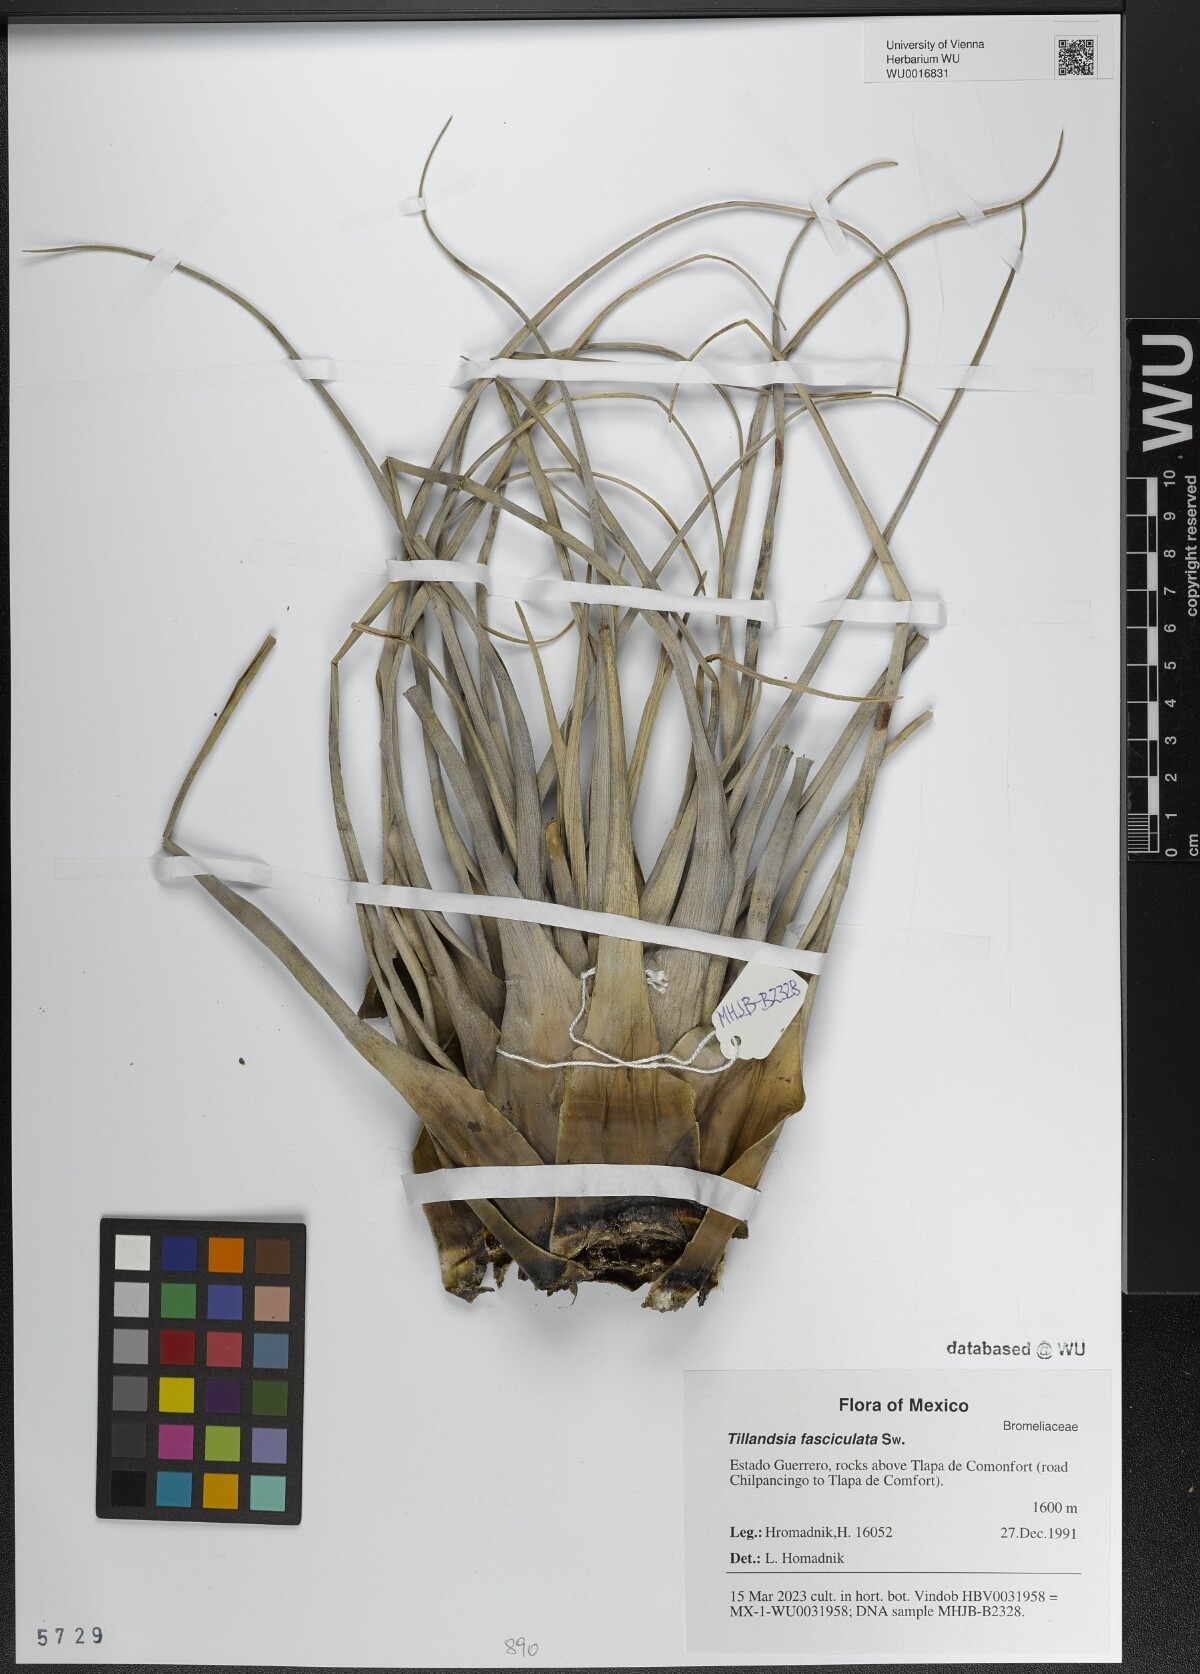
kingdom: Plantae
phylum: Tracheophyta
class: Liliopsida
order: Poales
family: Bromeliaceae
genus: Tillandsia
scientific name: Tillandsia fasciculata
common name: Giant airplant
